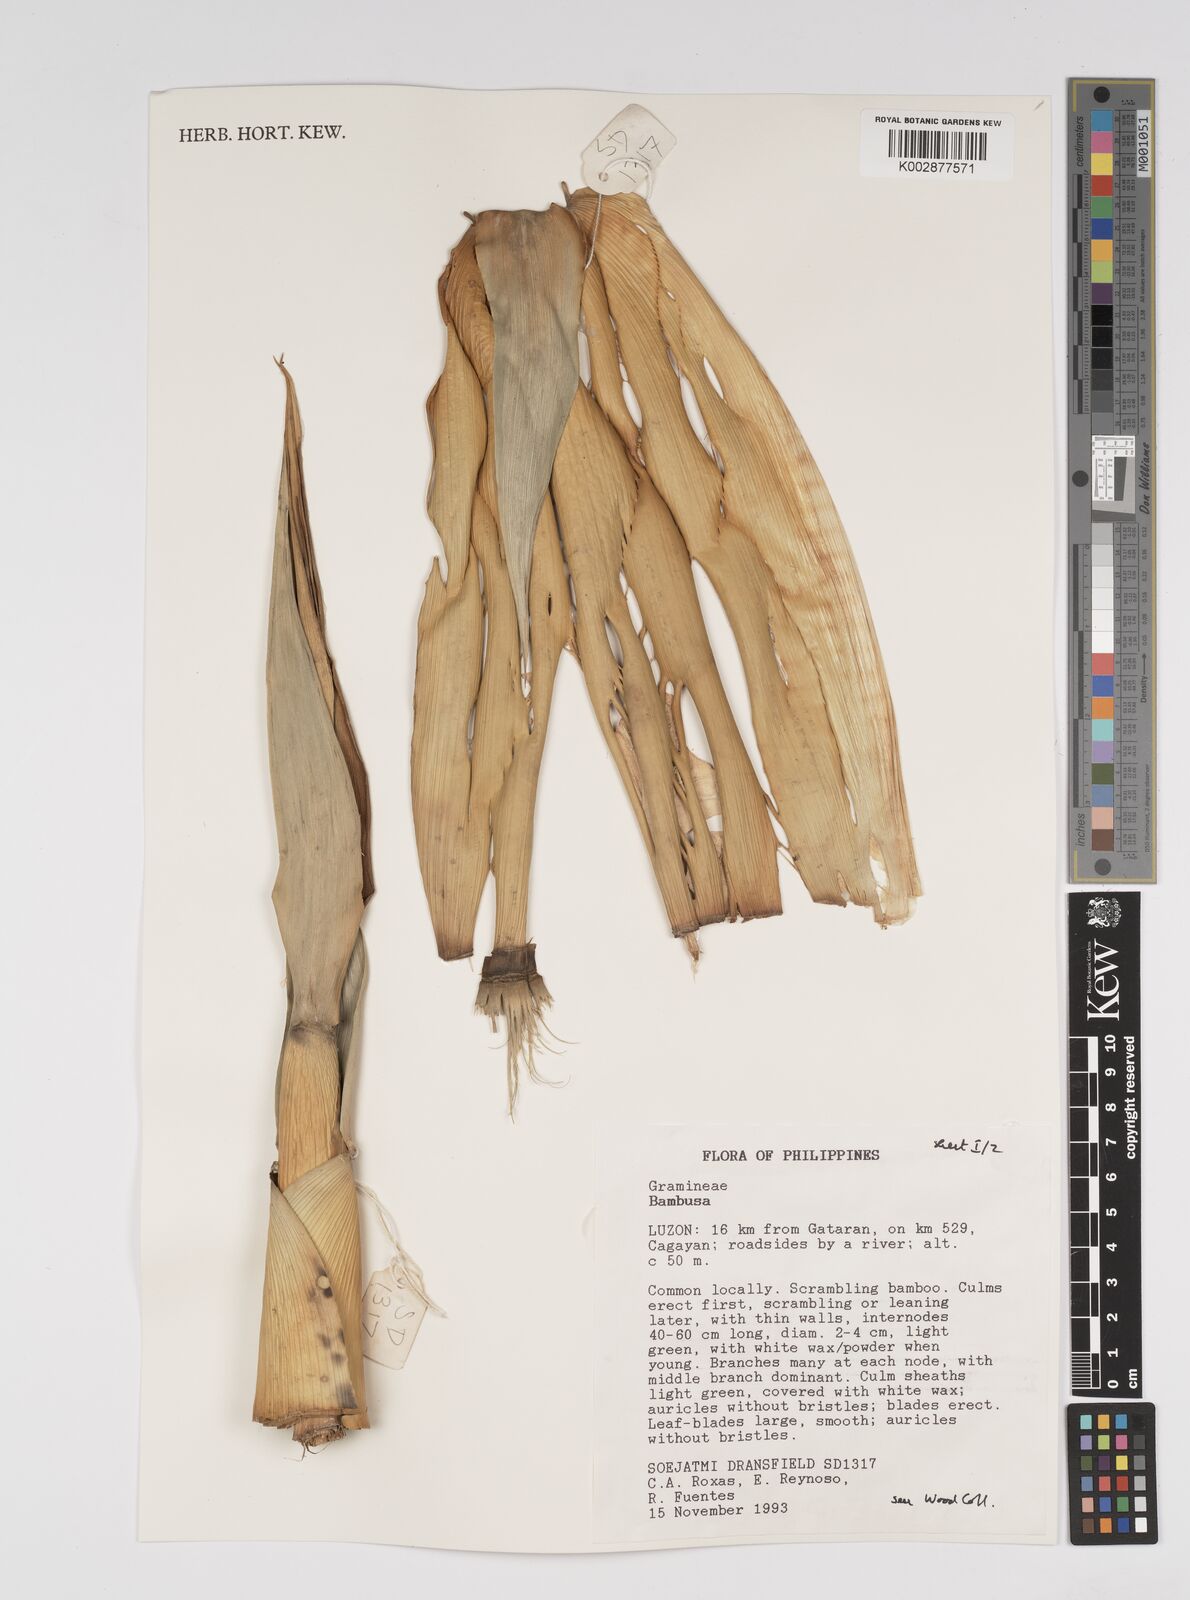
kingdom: Plantae
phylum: Tracheophyta
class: Liliopsida
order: Poales
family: Poaceae
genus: Bambusa
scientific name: Bambusa
